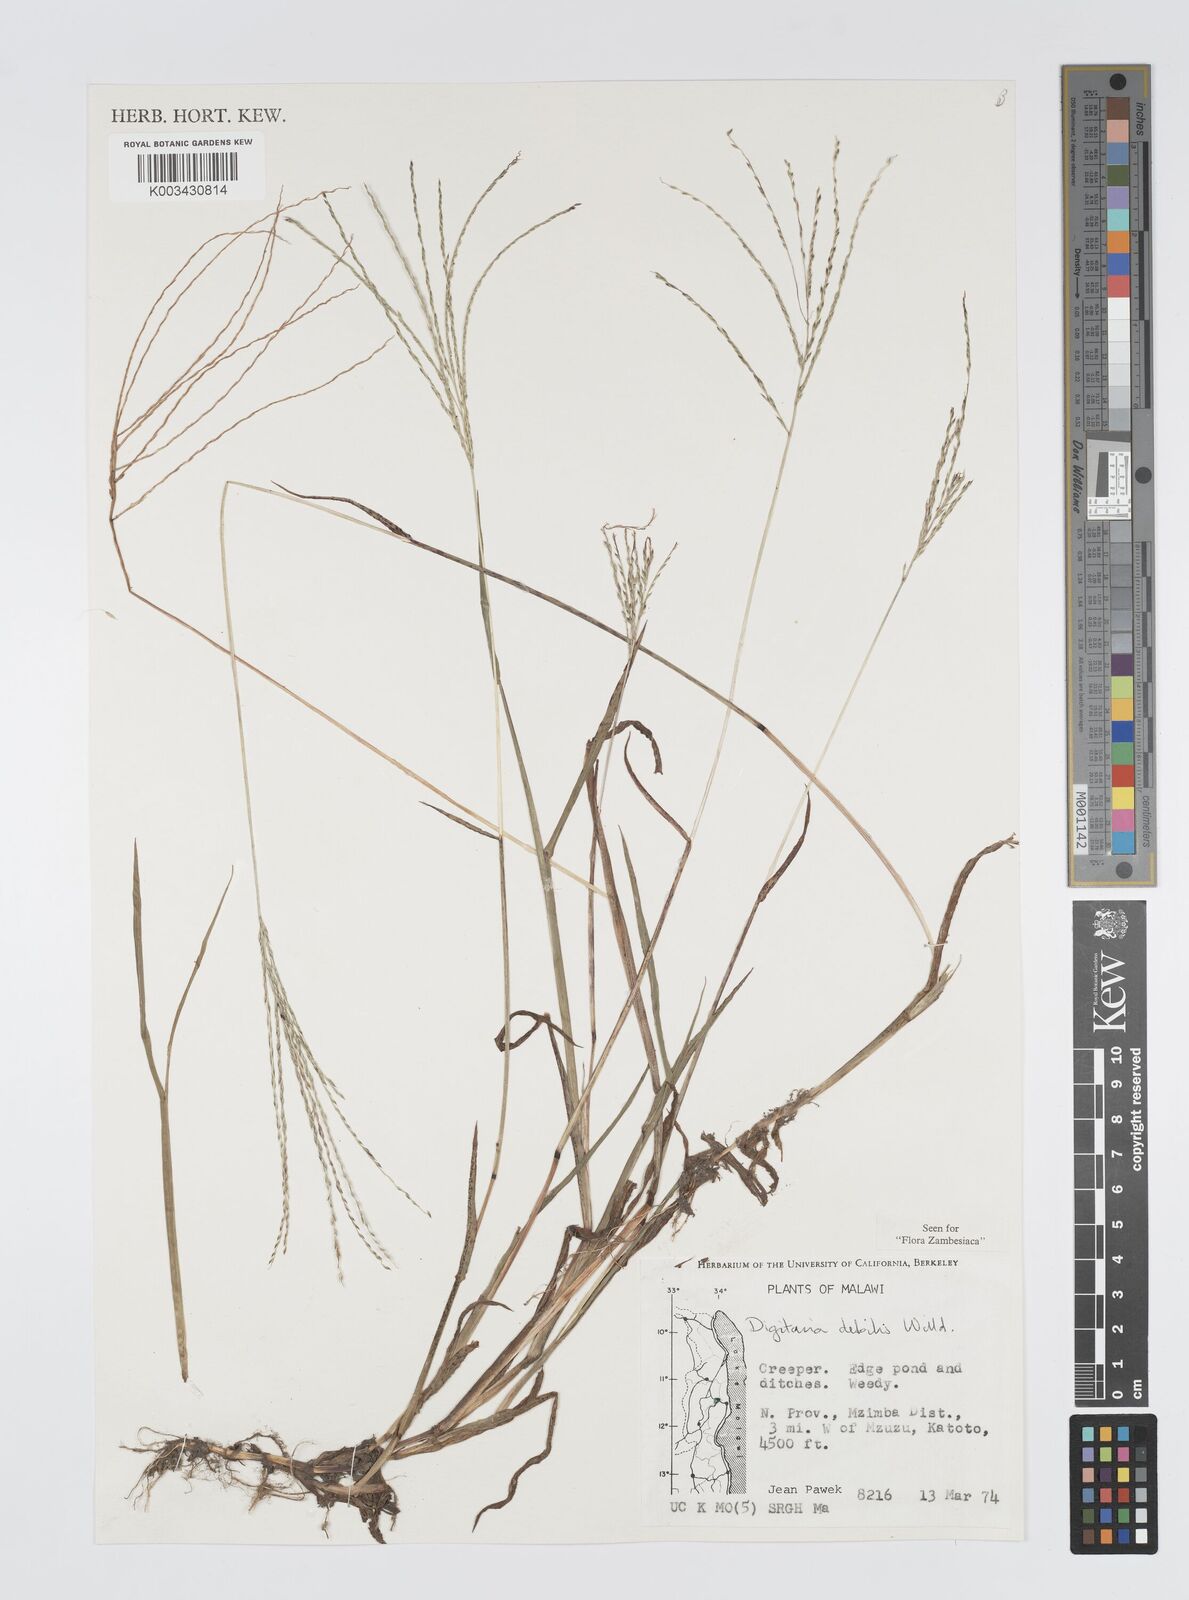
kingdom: Plantae
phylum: Tracheophyta
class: Liliopsida
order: Poales
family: Poaceae
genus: Digitaria
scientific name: Digitaria debilis
